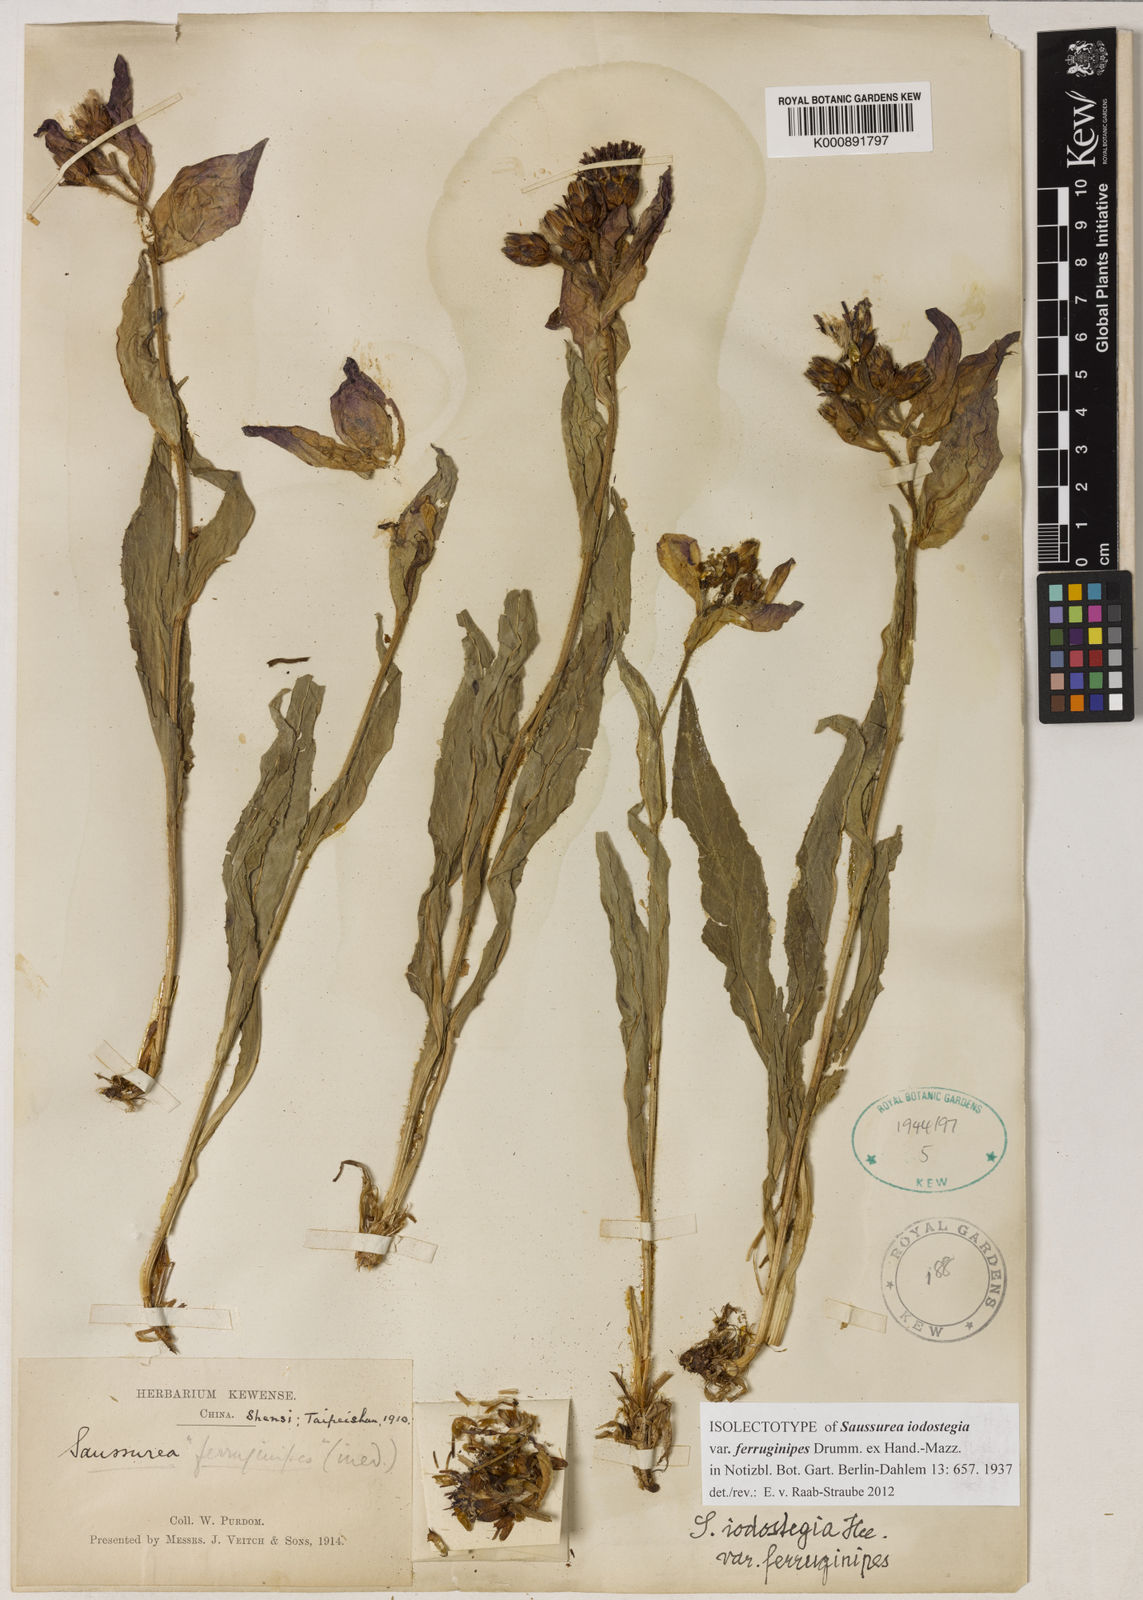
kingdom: Plantae
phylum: Tracheophyta
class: Magnoliopsida
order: Asterales
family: Asteraceae
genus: Saussurea
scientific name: Saussurea iodostegia
